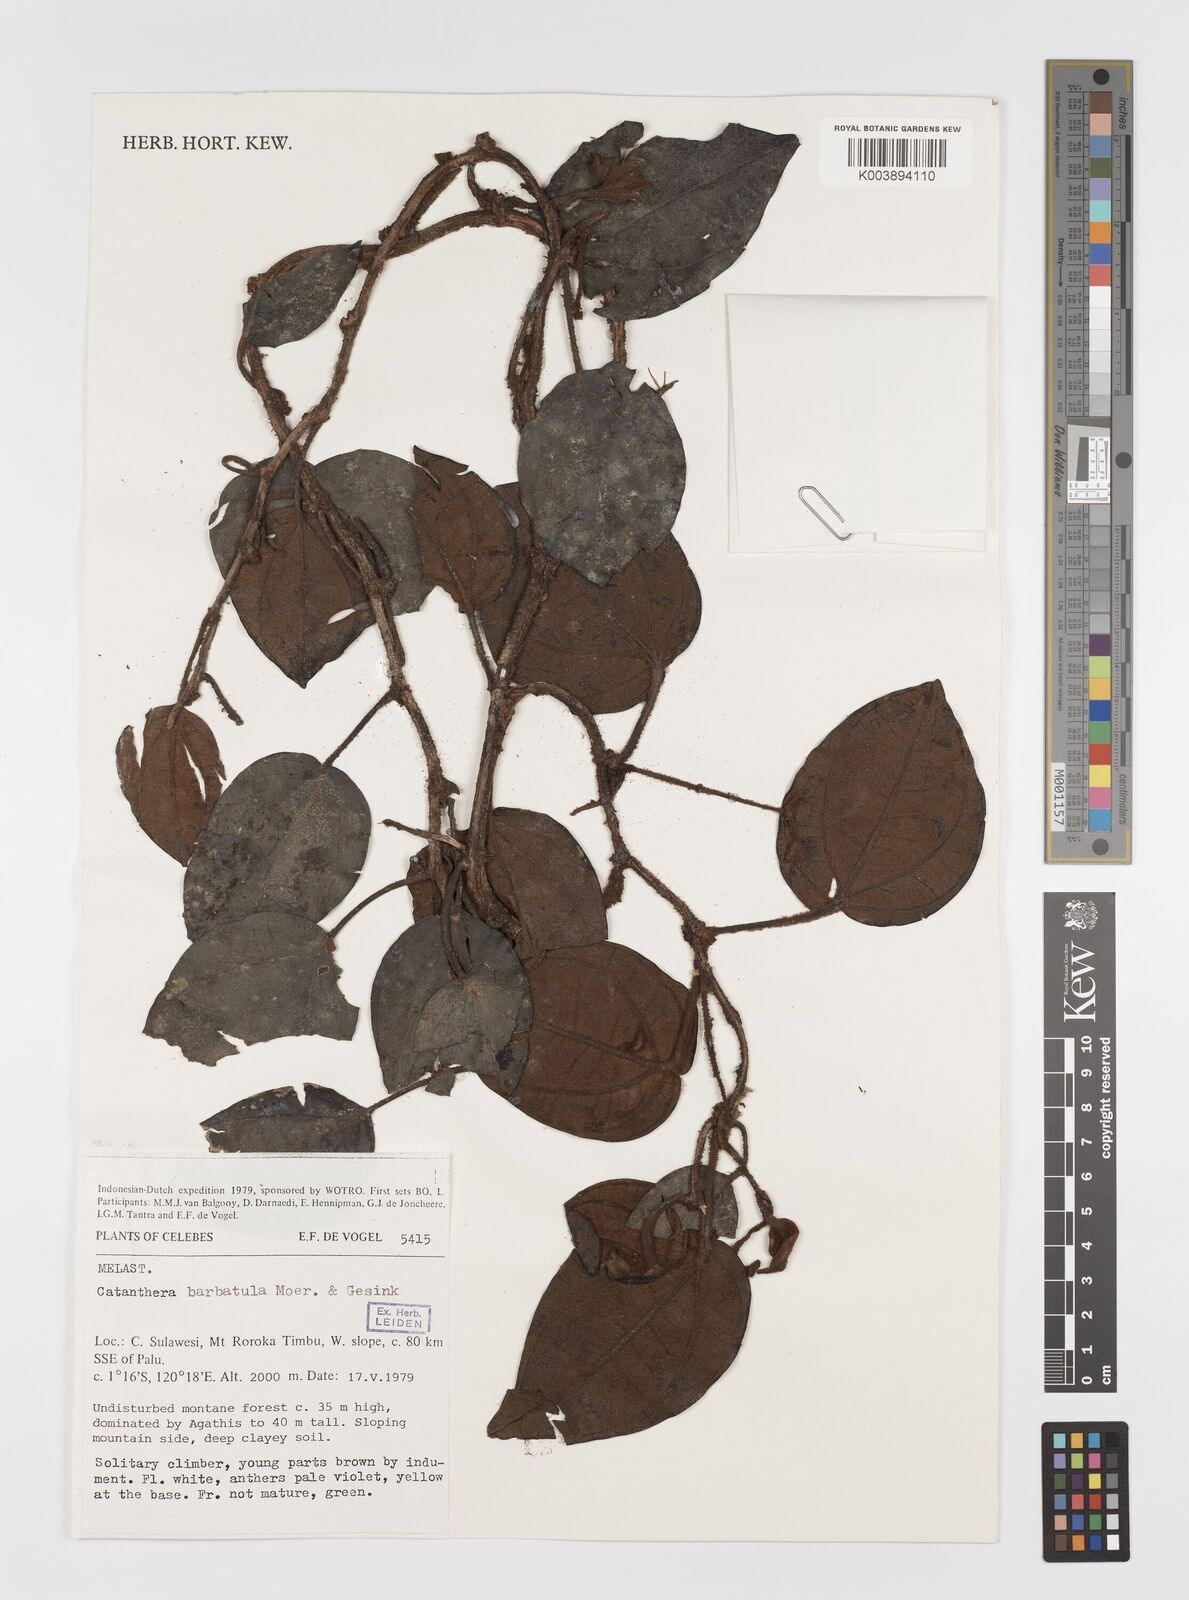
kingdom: Plantae
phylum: Tracheophyta
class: Magnoliopsida
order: Myrtales
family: Melastomataceae
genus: Catanthera
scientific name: Catanthera
